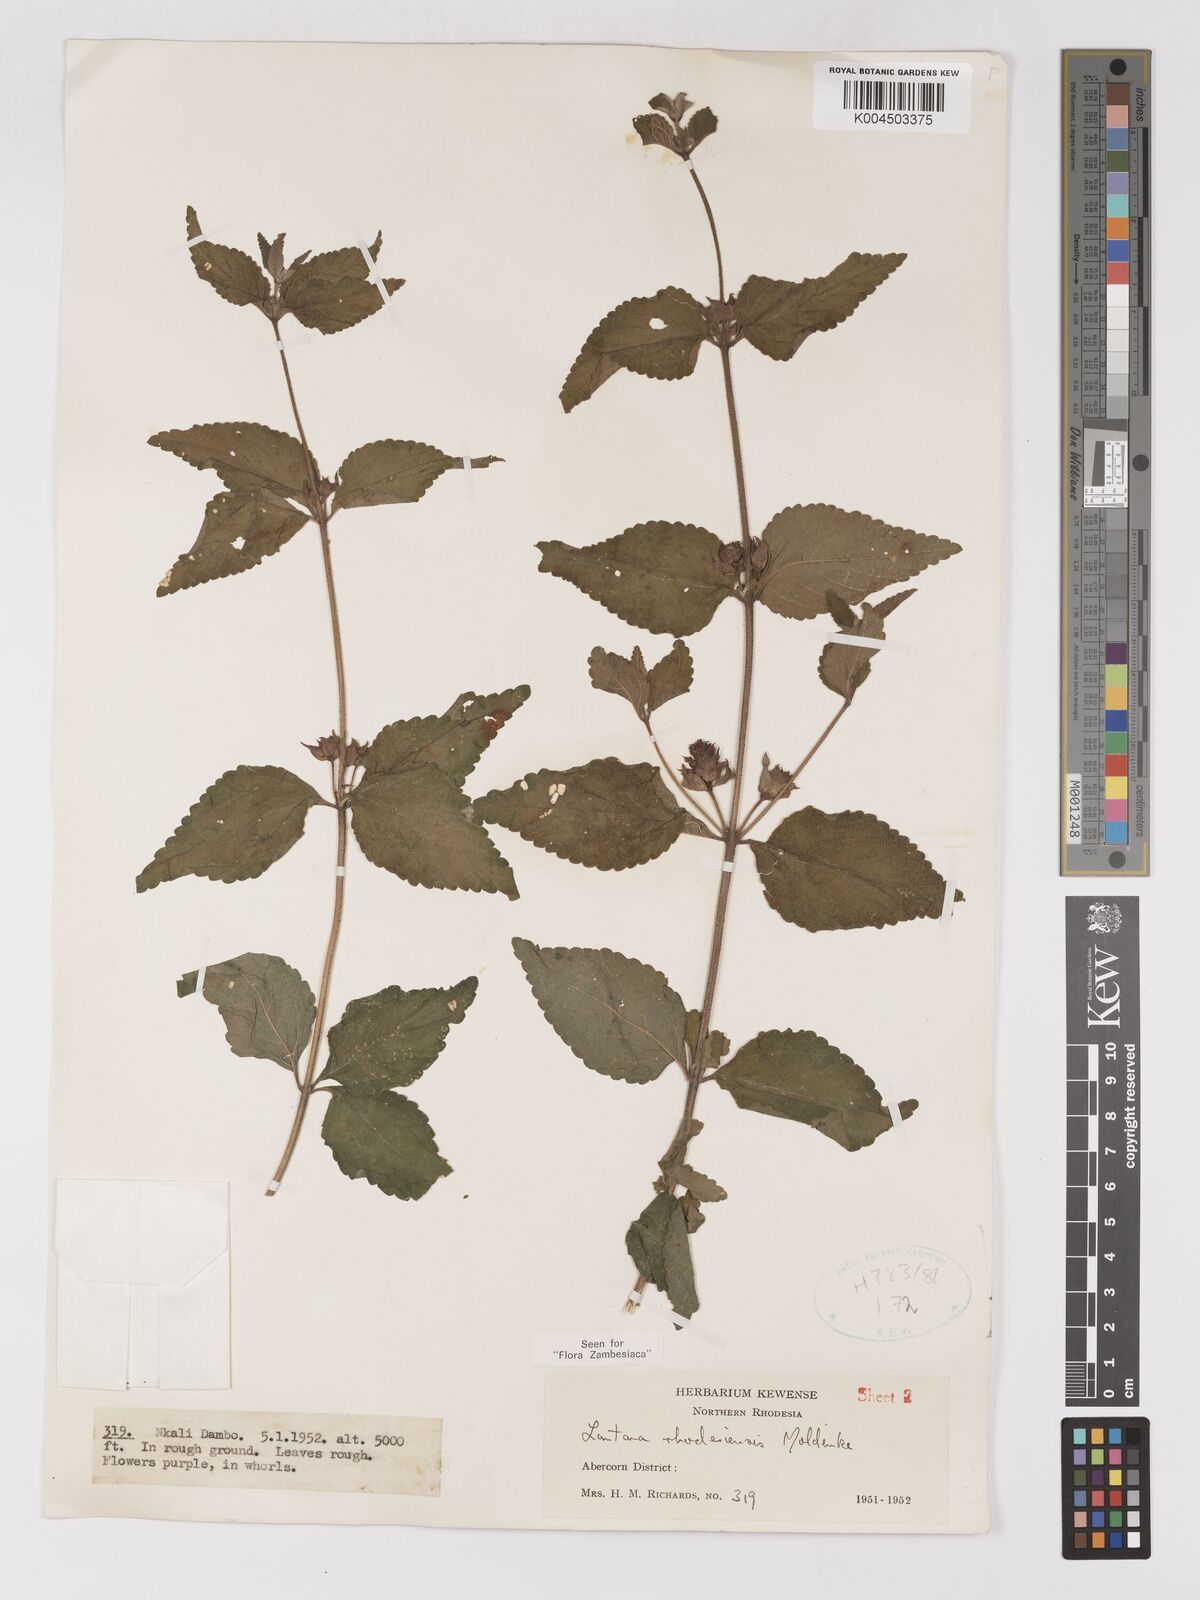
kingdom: Plantae
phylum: Tracheophyta
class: Magnoliopsida
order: Lamiales
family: Verbenaceae
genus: Lantana
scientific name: Lantana ukambensis
